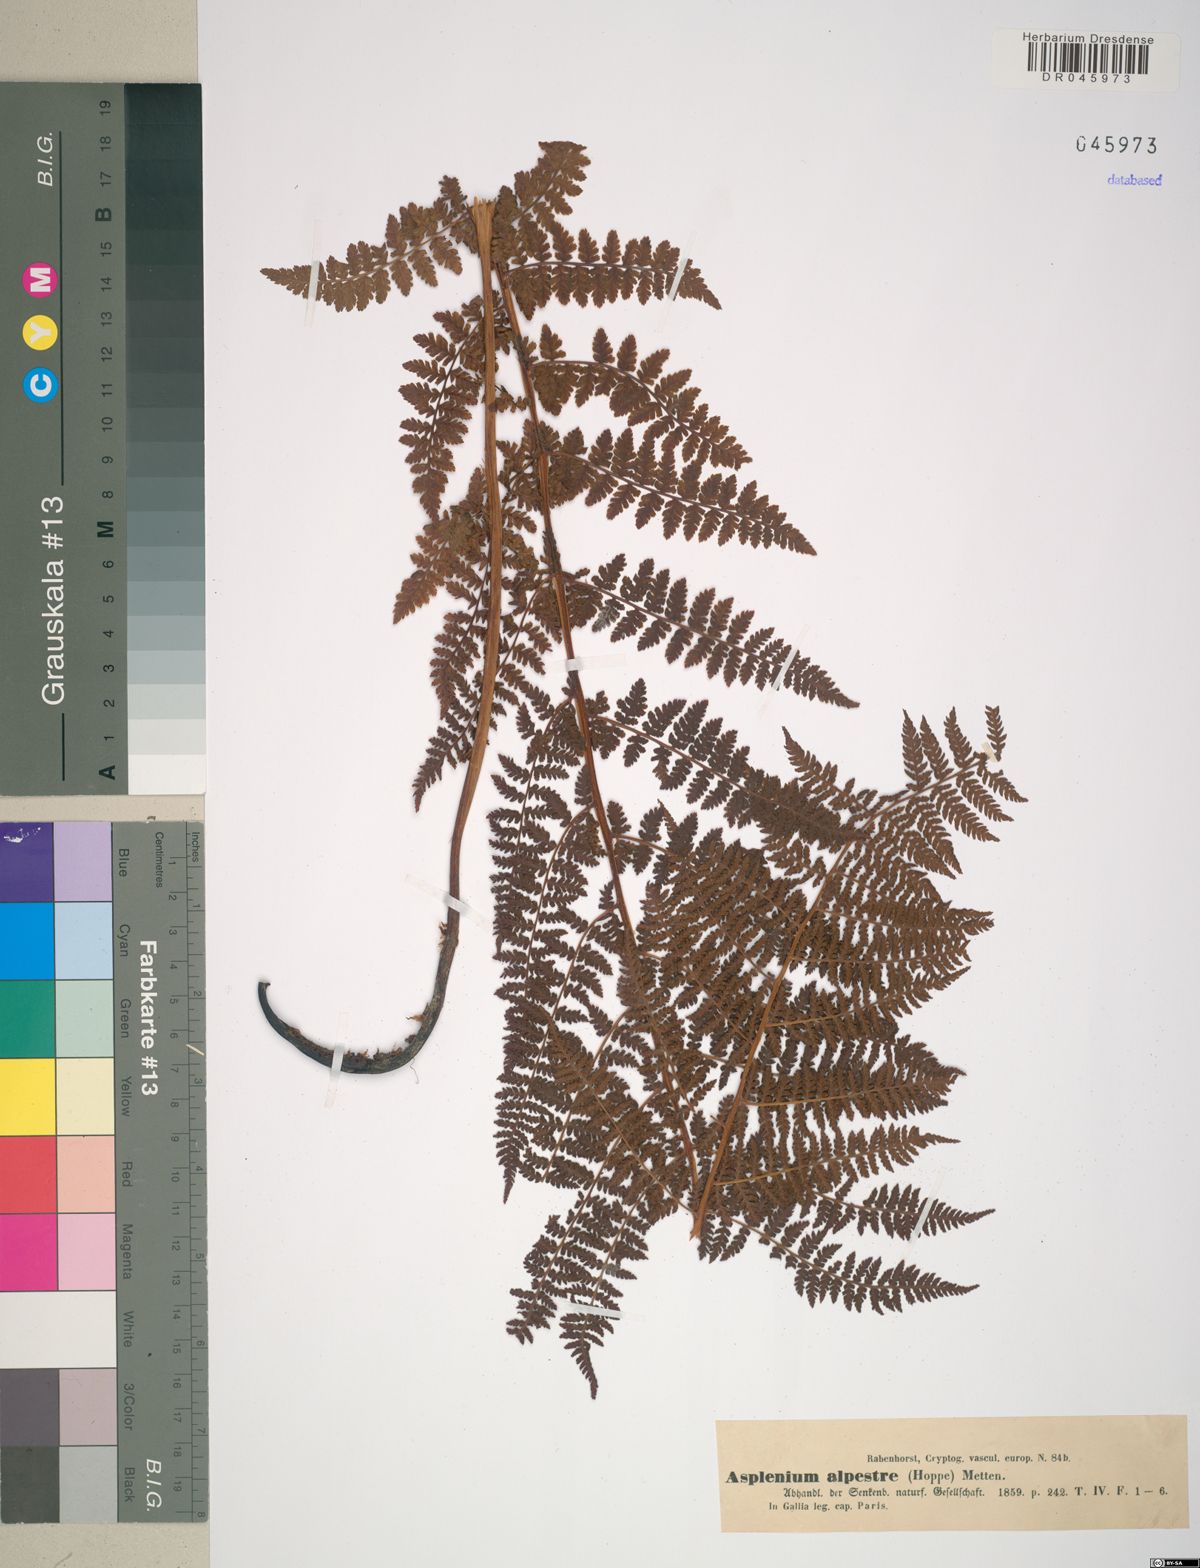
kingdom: Plantae
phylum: Tracheophyta
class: Polypodiopsida
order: Polypodiales
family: Athyriaceae
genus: Diplazium
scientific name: Diplazium pallidum
